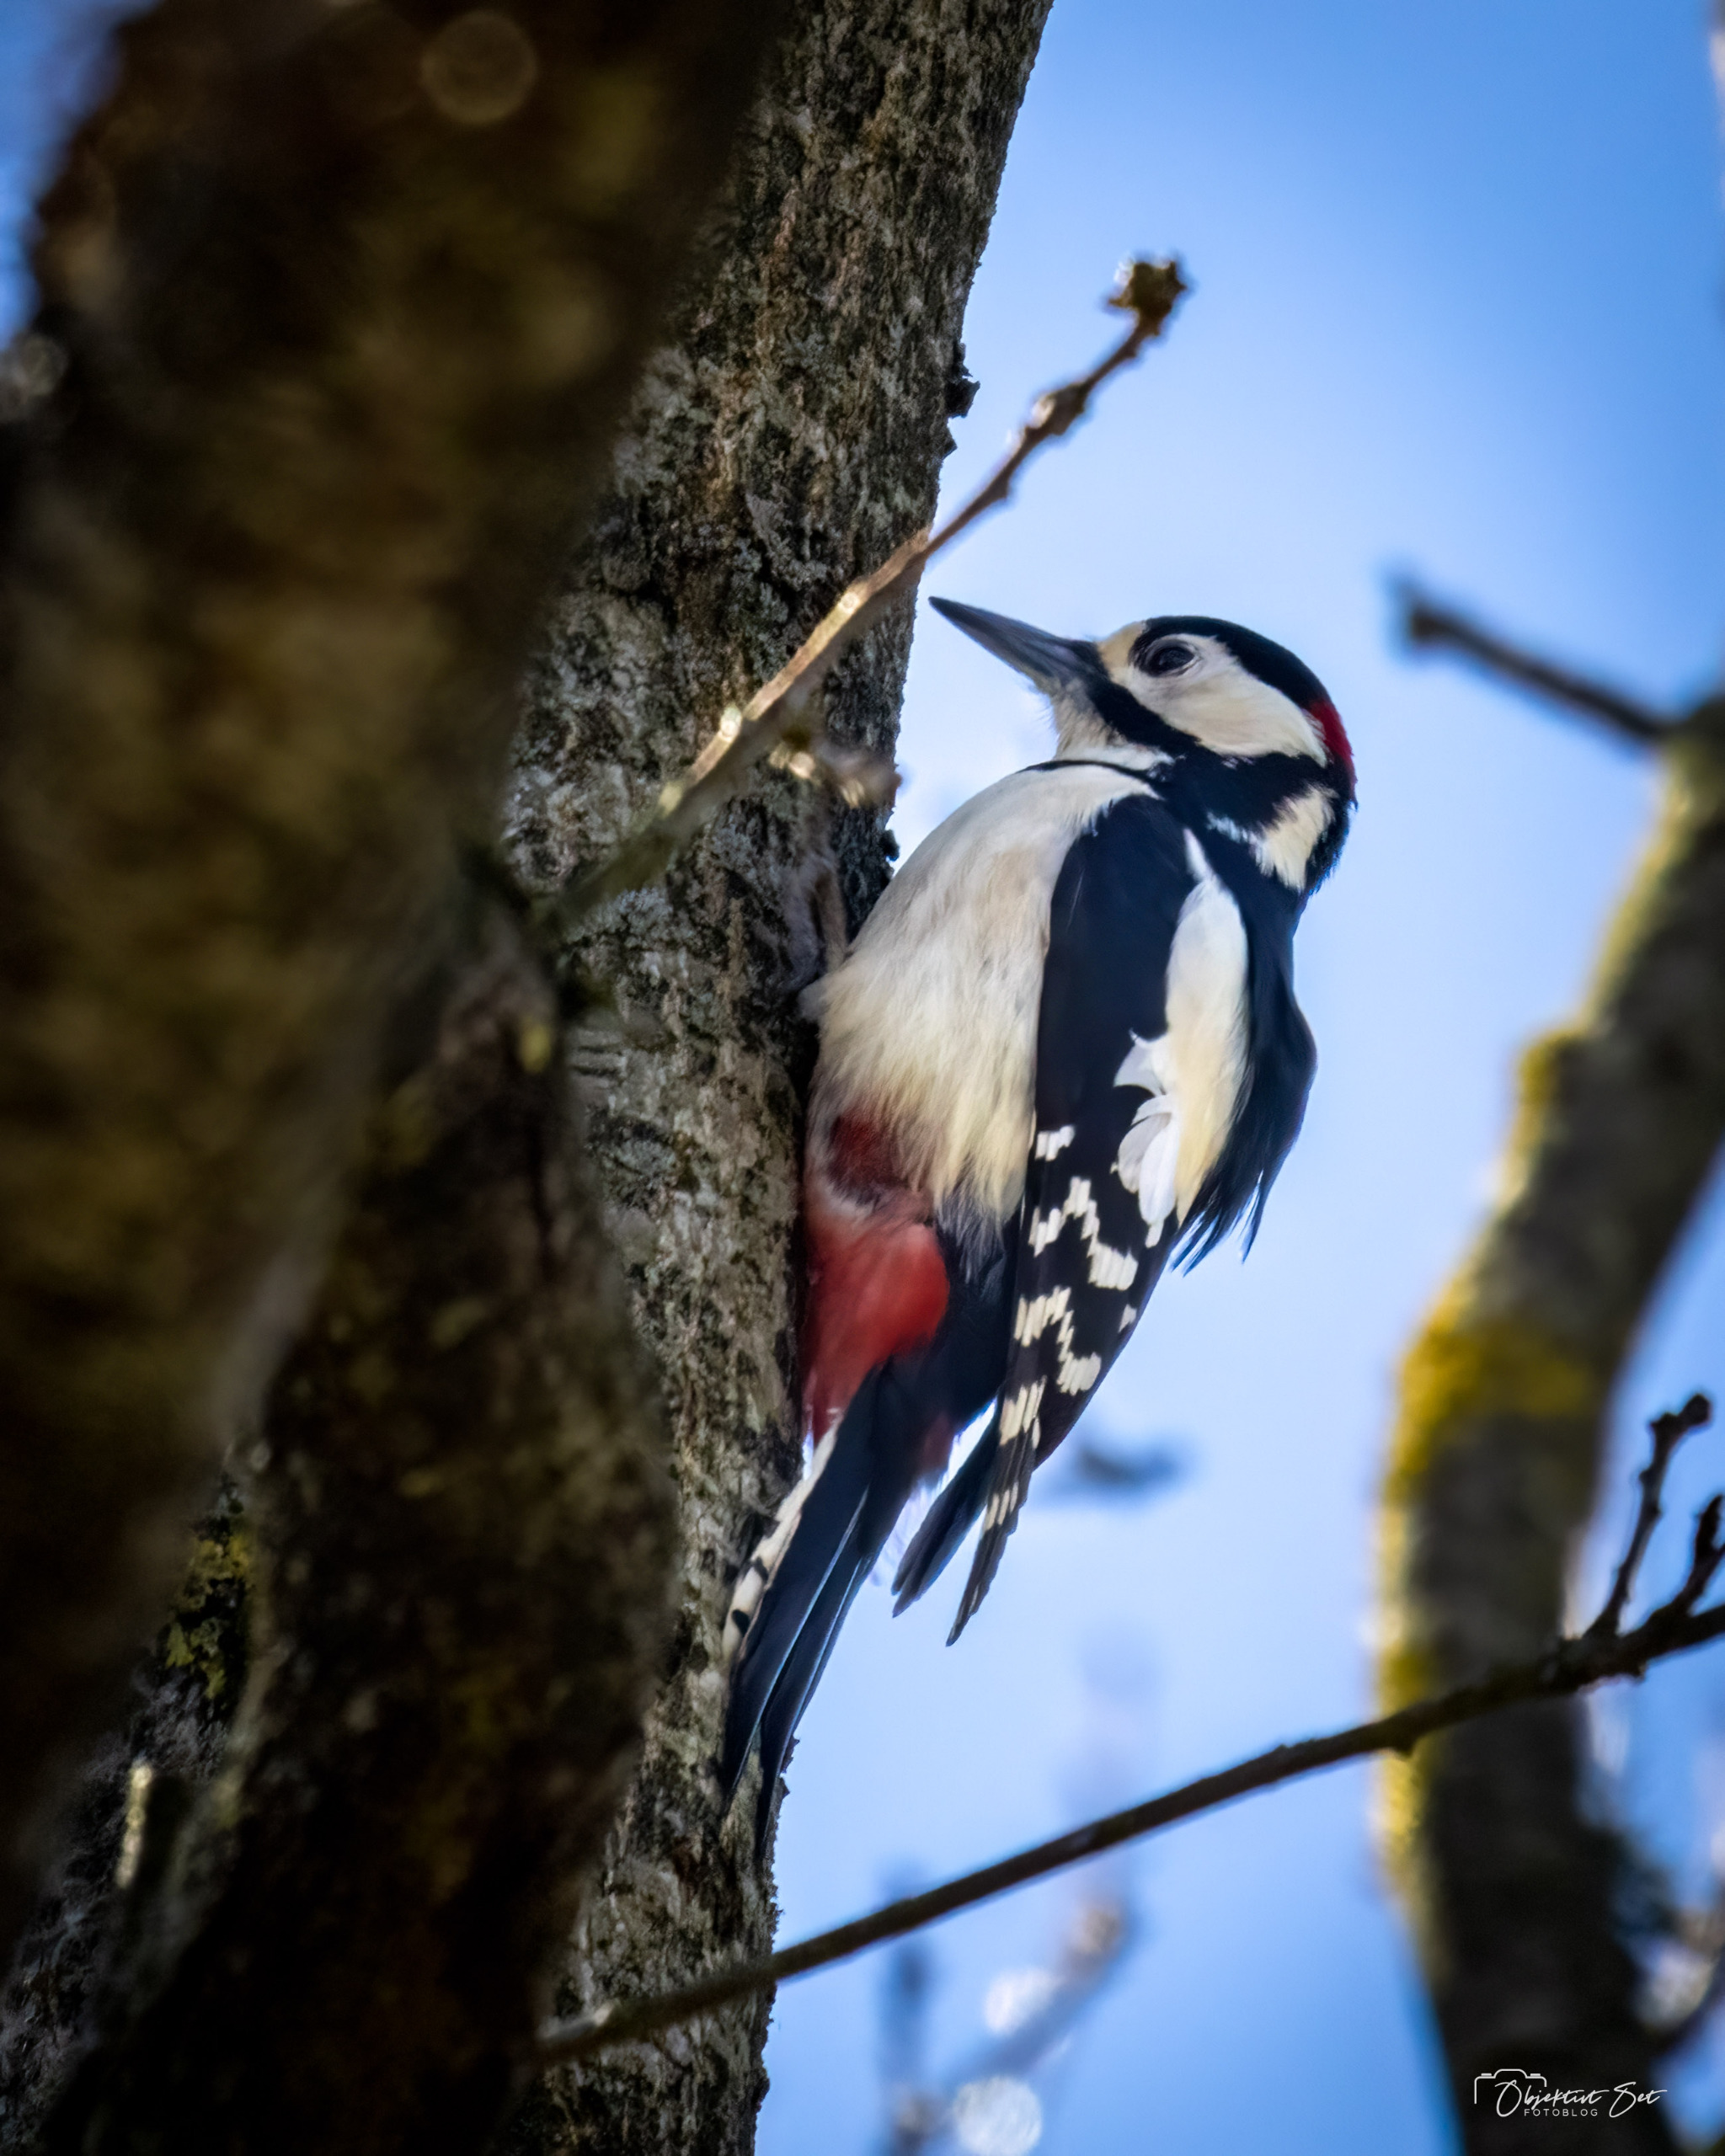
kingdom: Animalia
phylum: Chordata
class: Aves
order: Piciformes
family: Picidae
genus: Dendrocopos
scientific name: Dendrocopos major
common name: Stor flagspætte
